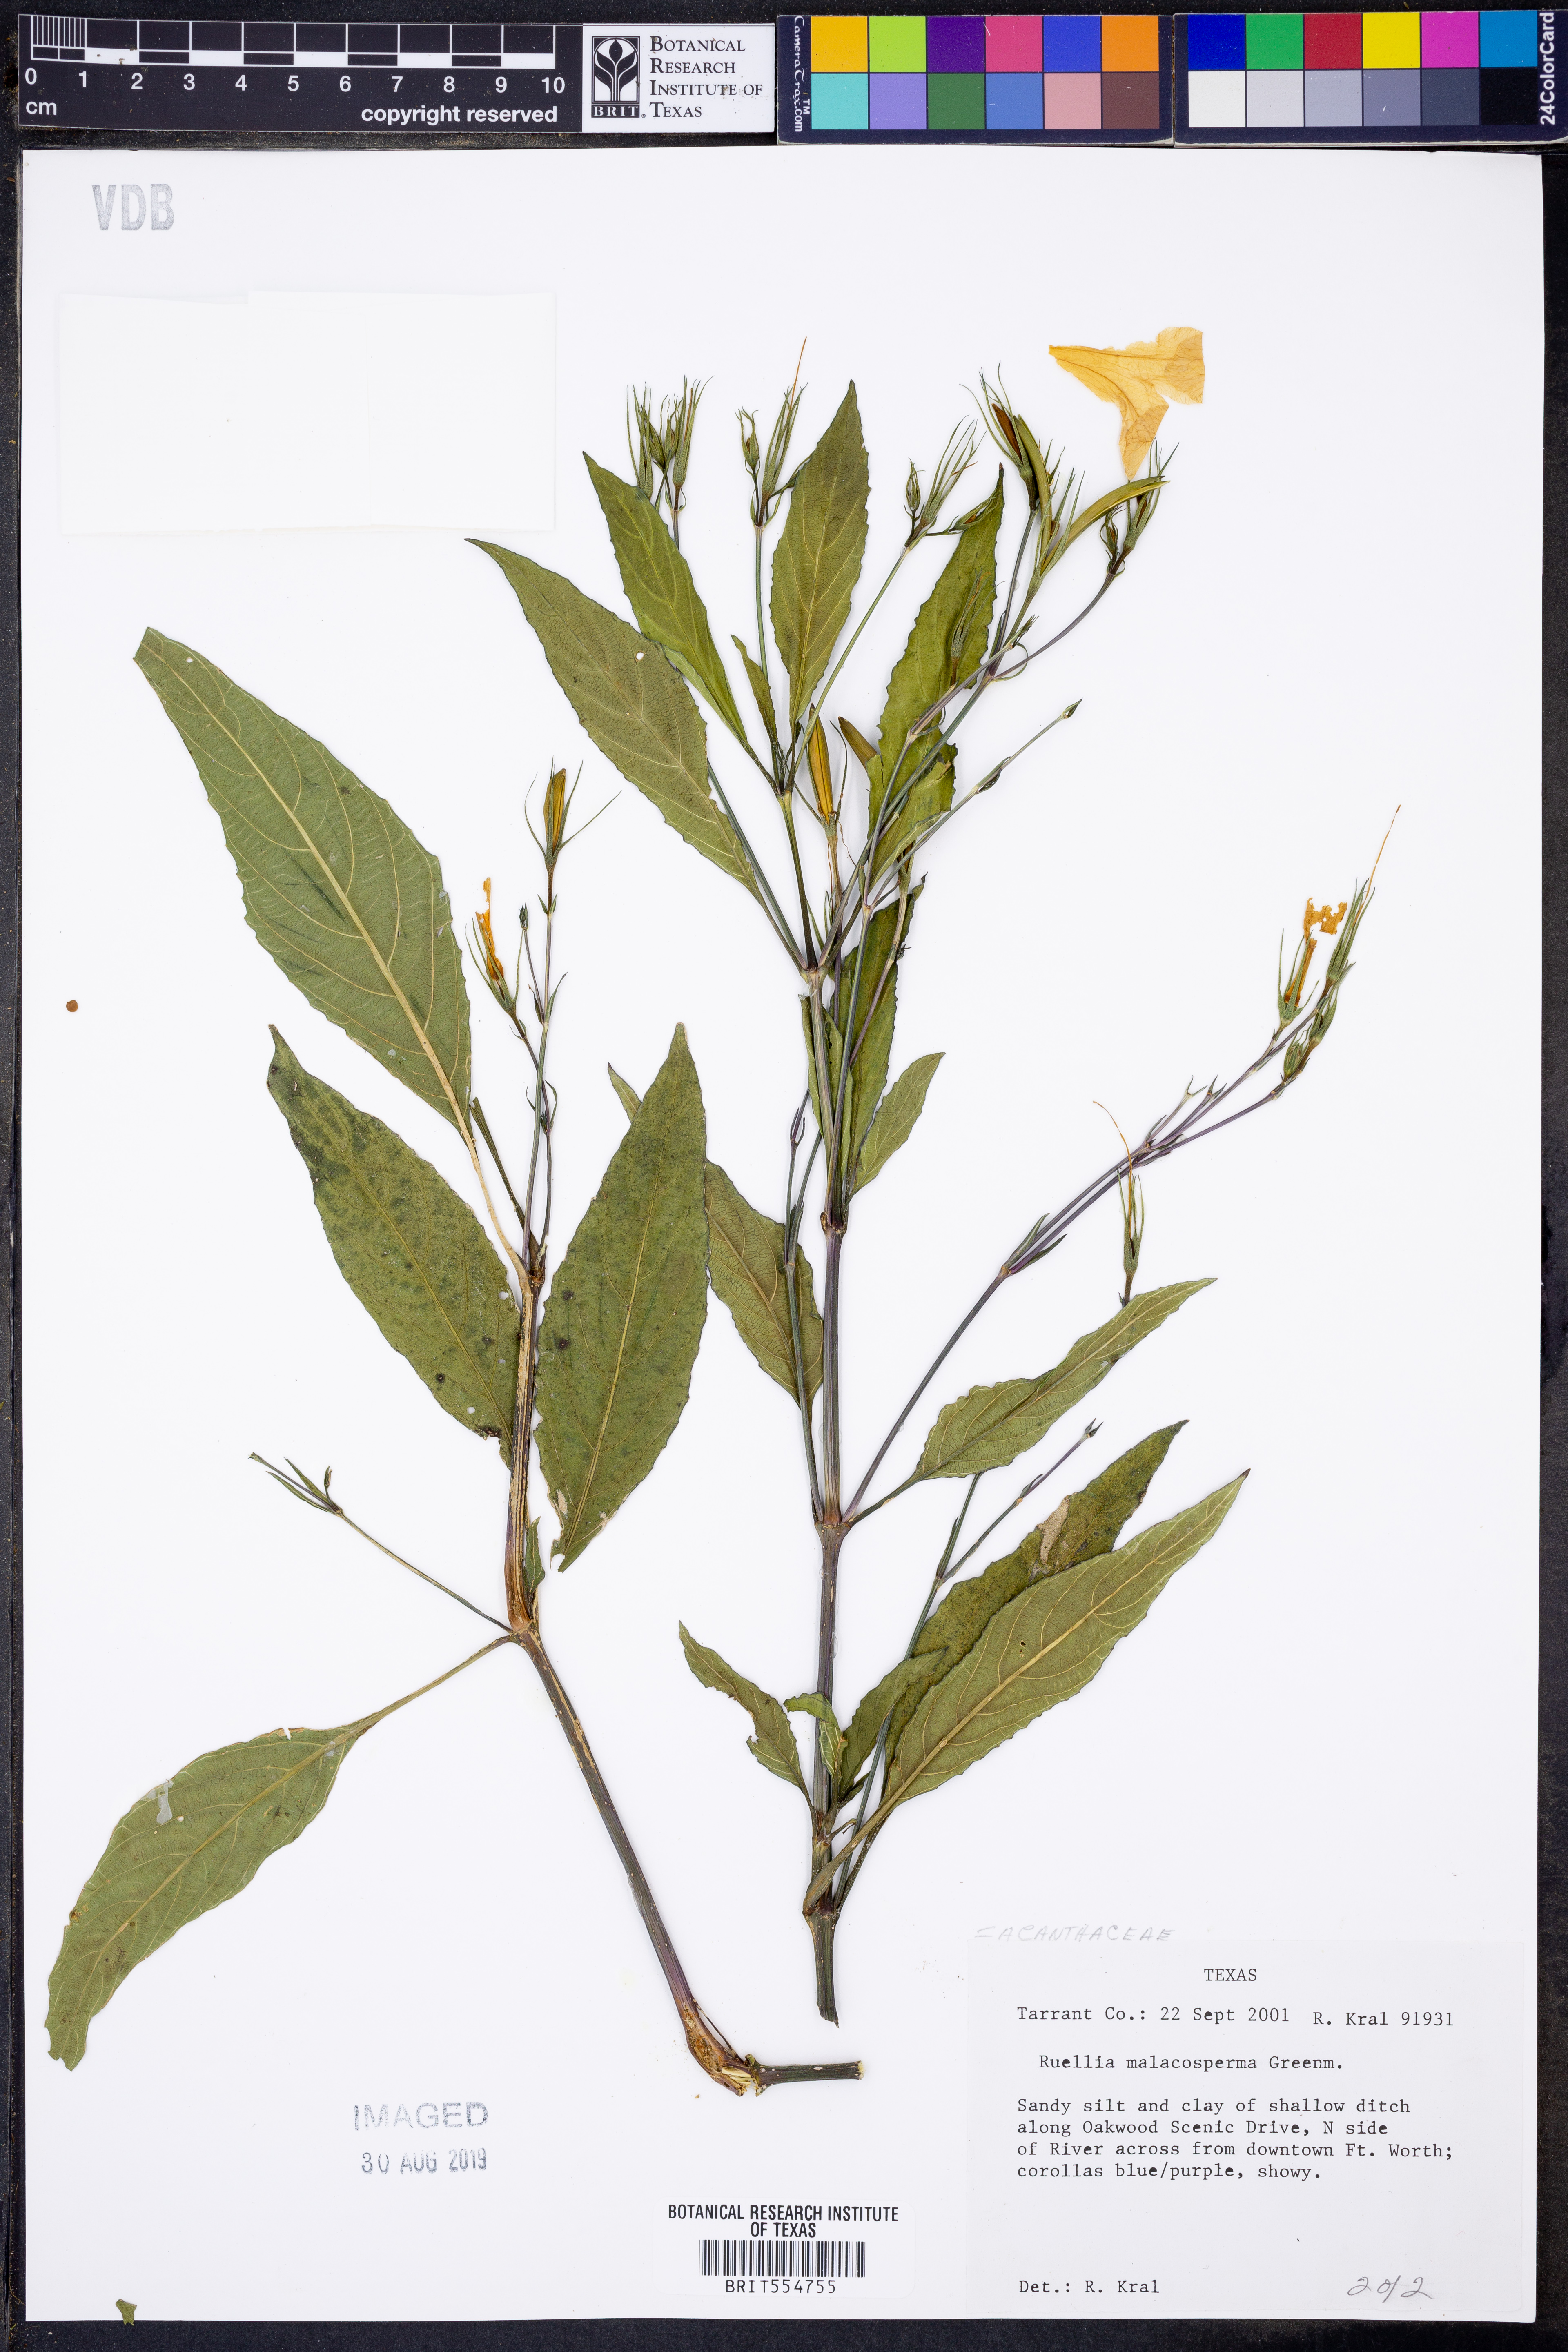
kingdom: Plantae
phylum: Tracheophyta
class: Magnoliopsida
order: Lamiales
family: Acanthaceae
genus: Ruellia
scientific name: Ruellia malacosperma
